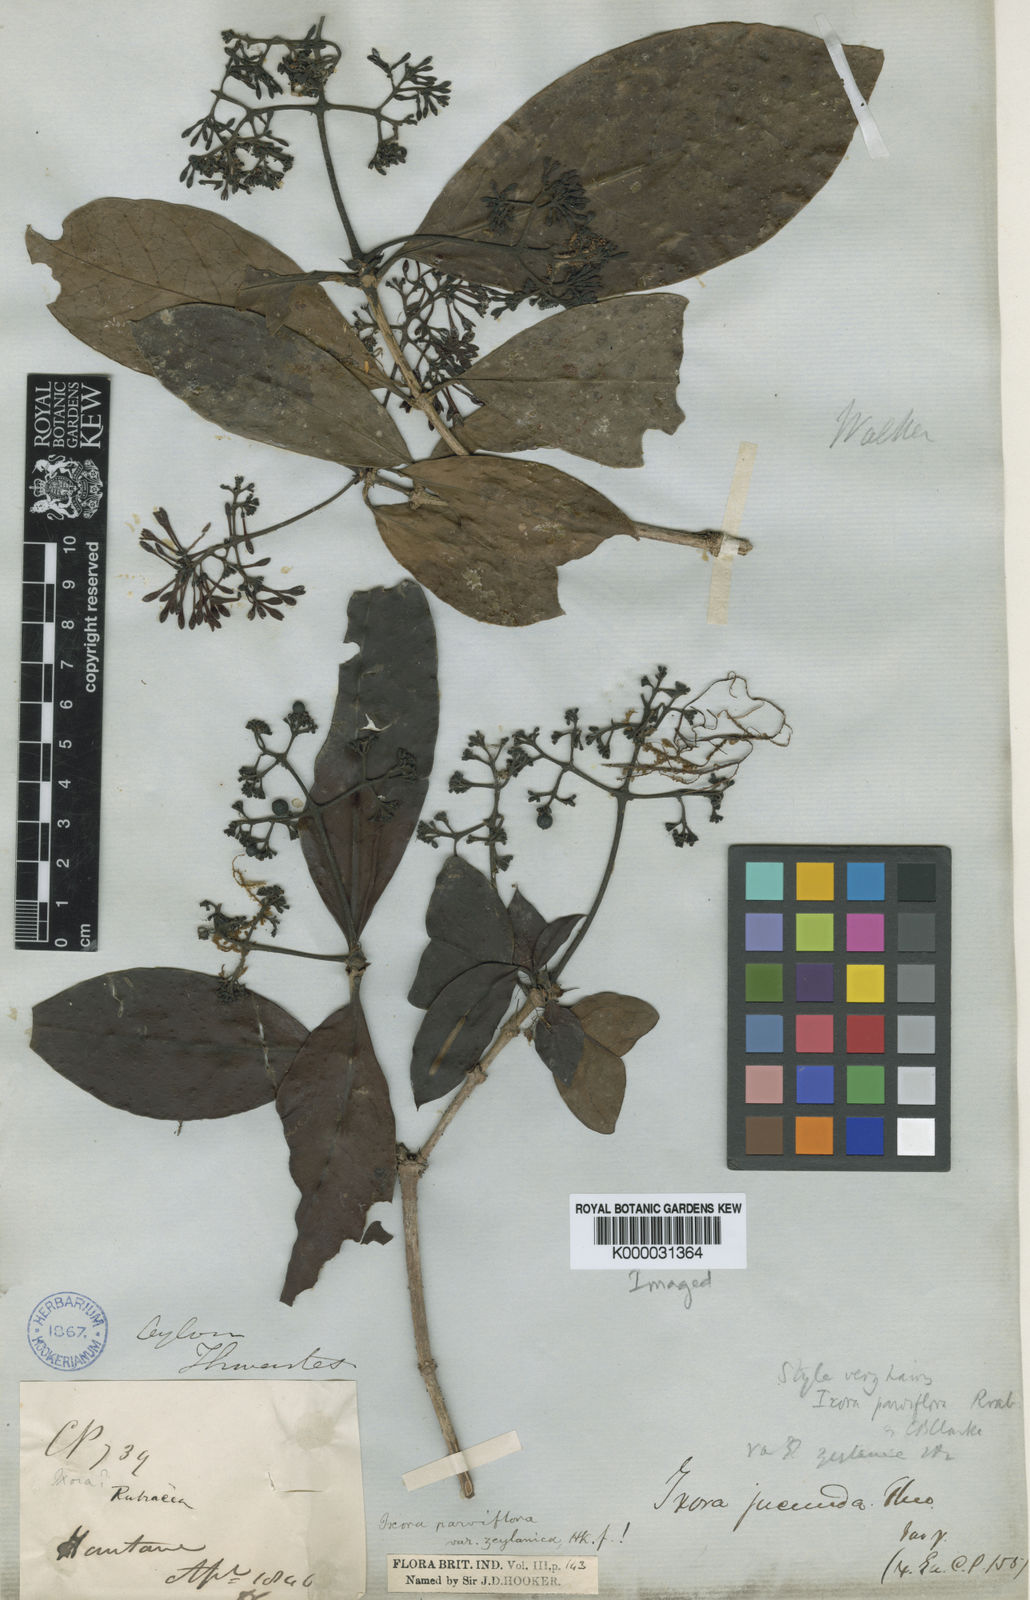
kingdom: Plantae
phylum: Tracheophyta
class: Magnoliopsida
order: Gentianales
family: Rubiaceae
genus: Ixora
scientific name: Ixora pavetta
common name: Torch tree
